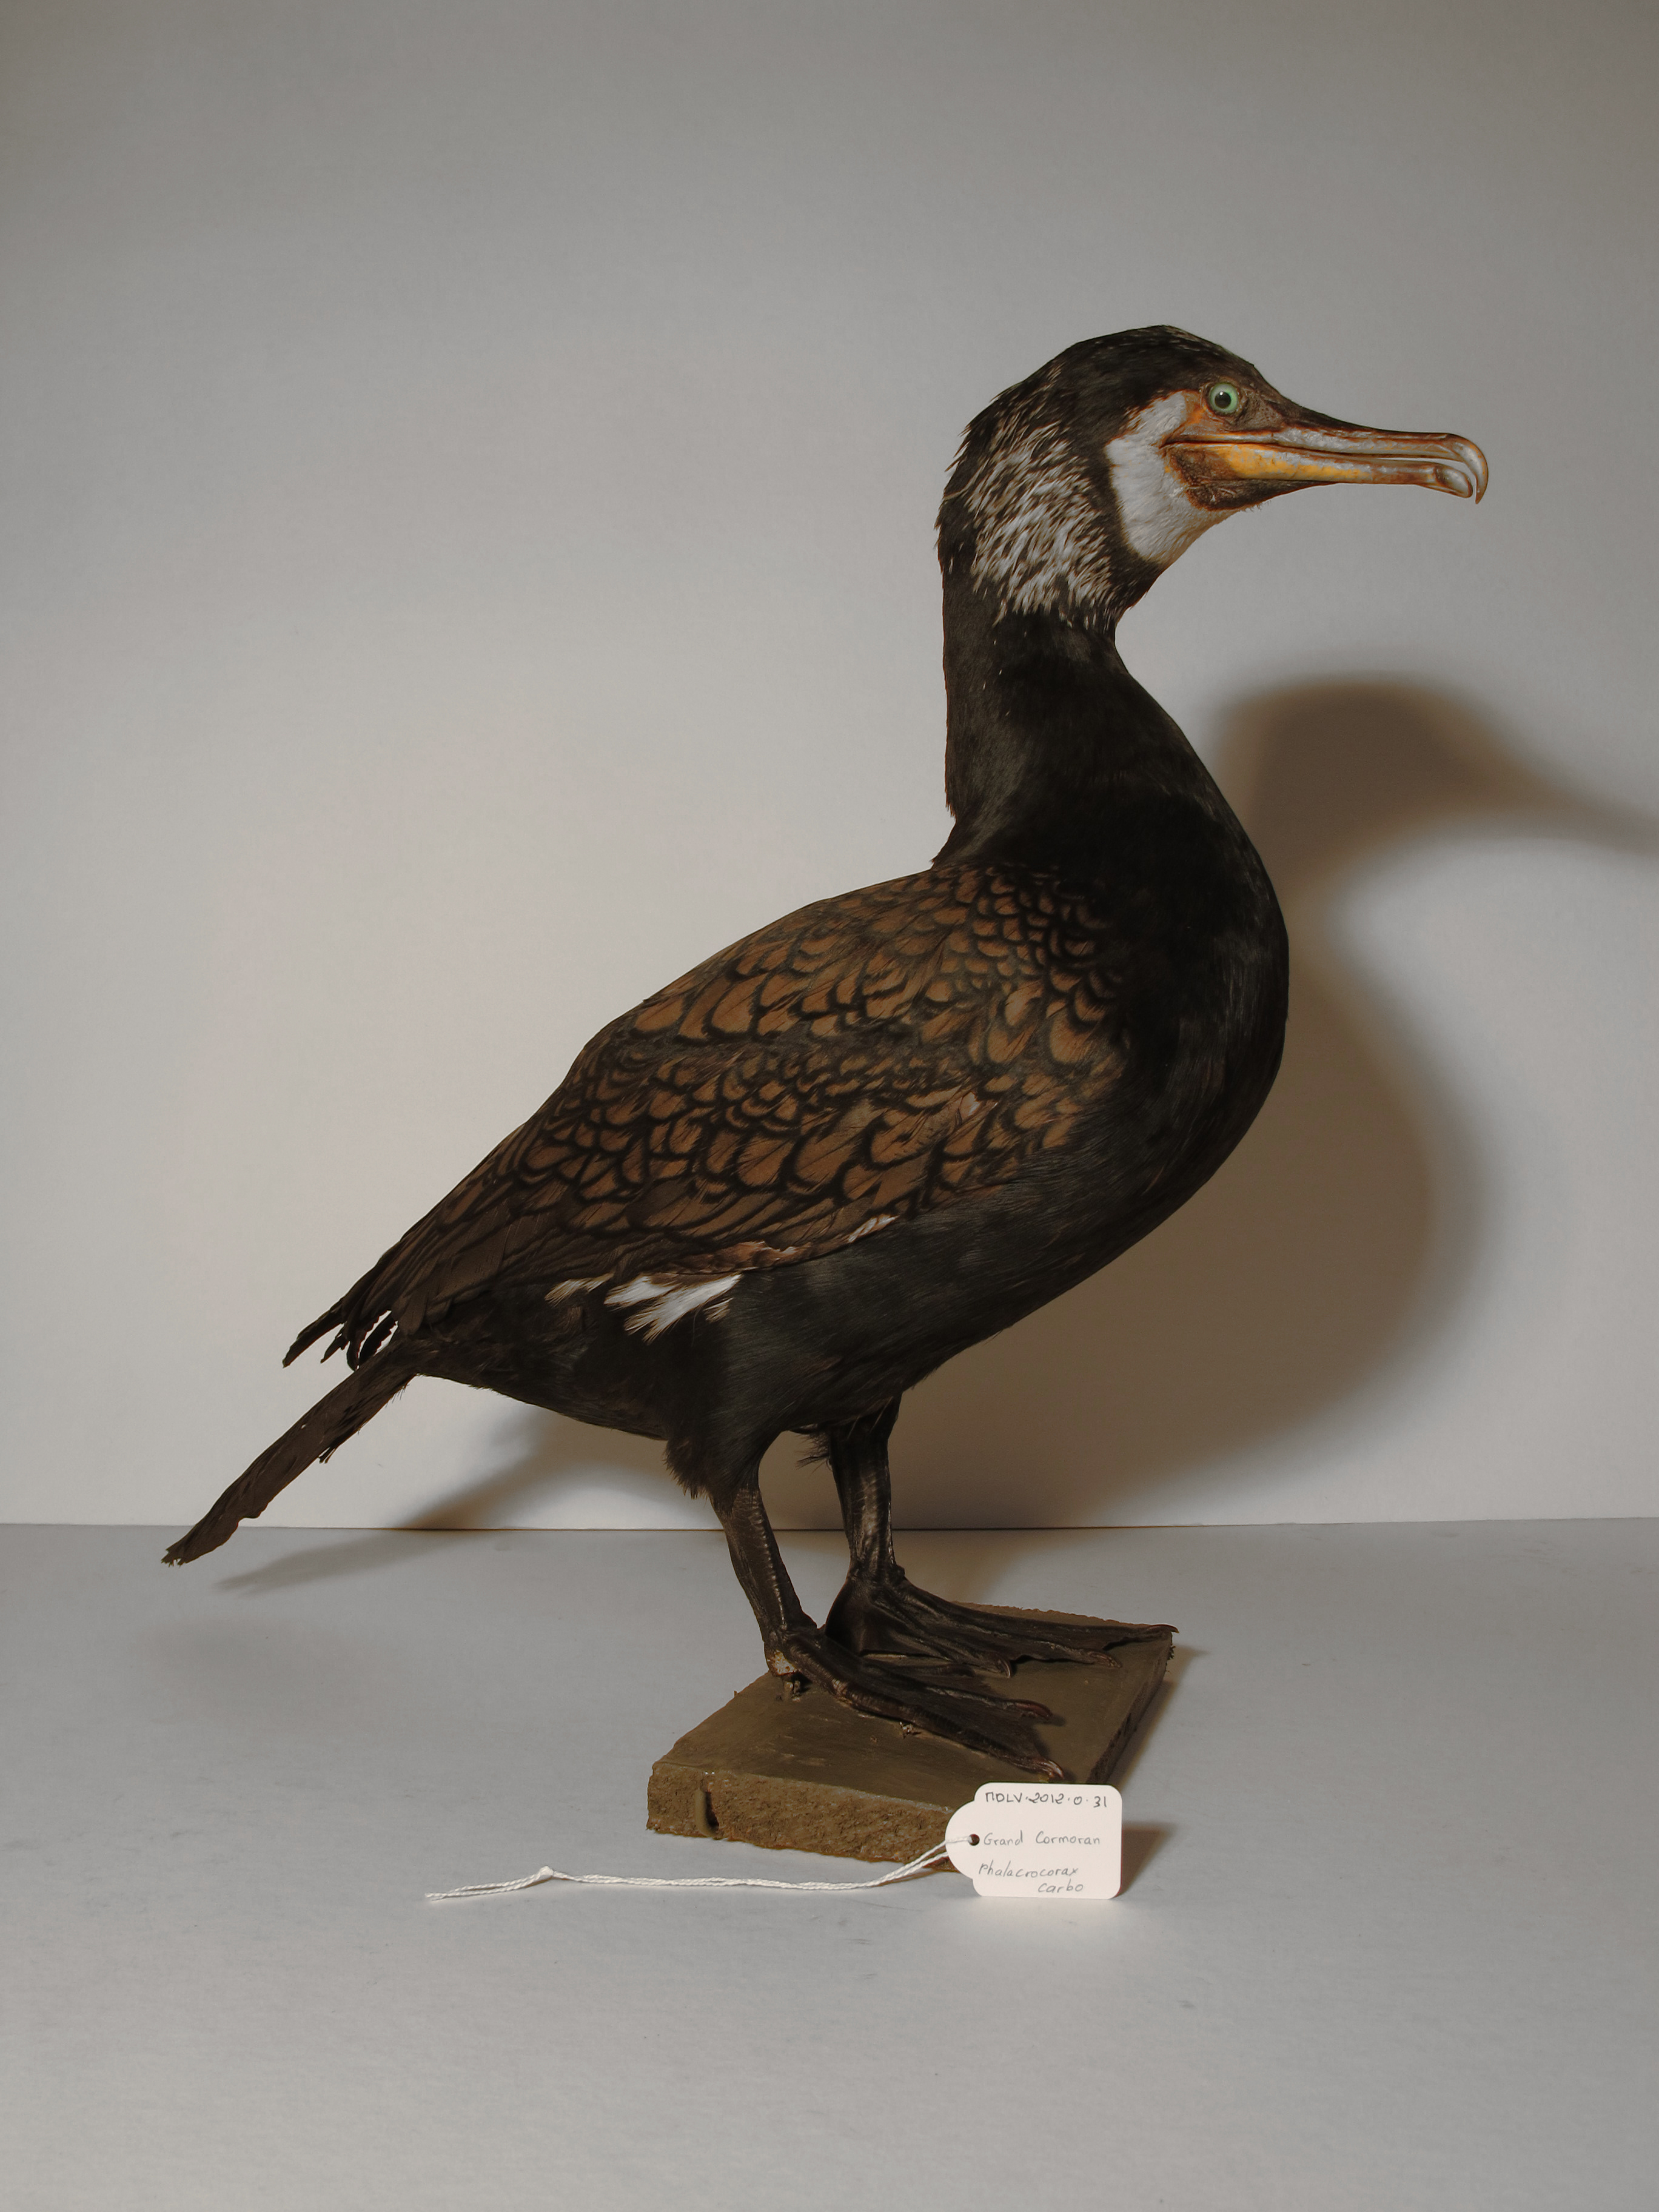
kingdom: Animalia
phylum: Chordata
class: Aves
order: Suliformes
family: Phalacrocoracidae
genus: Phalacrocorax
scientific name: Phalacrocorax carbo
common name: Great Cormorant
